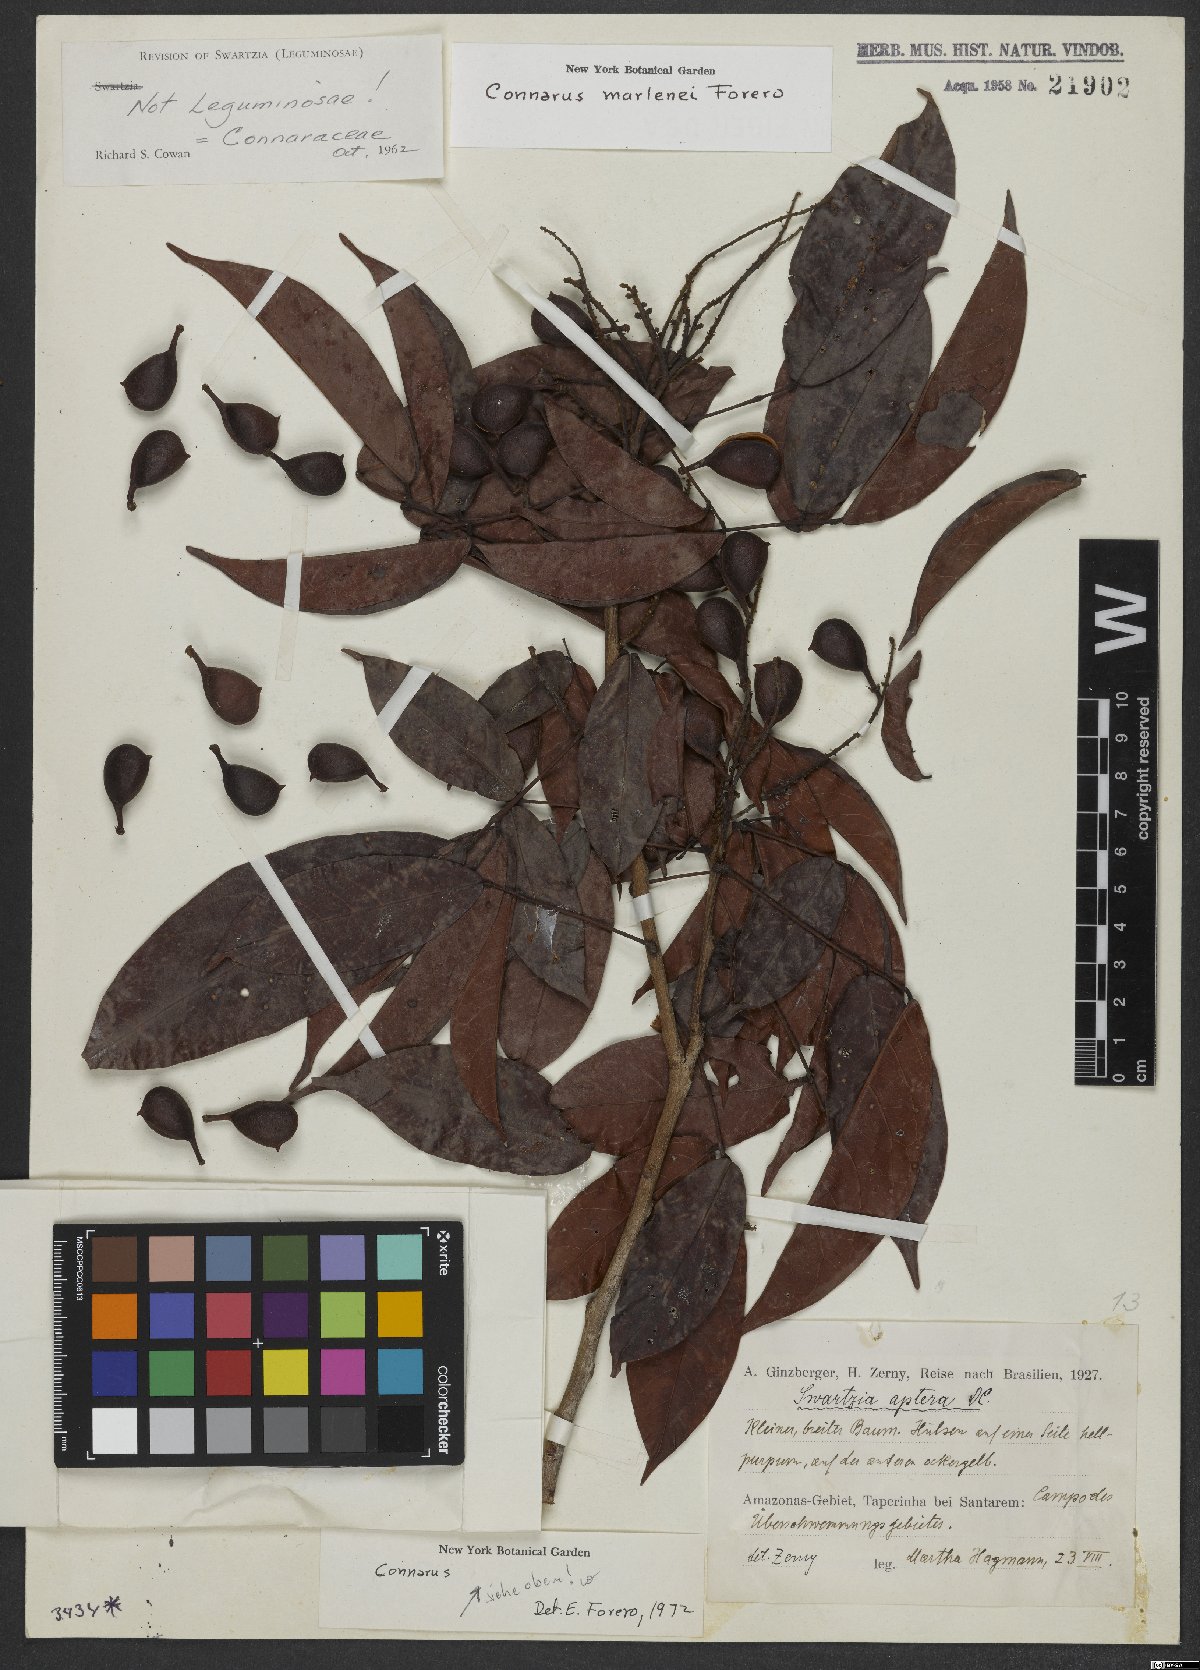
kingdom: Plantae
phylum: Tracheophyta
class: Magnoliopsida
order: Oxalidales
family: Connaraceae
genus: Connarus
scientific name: Connarus marlenei
